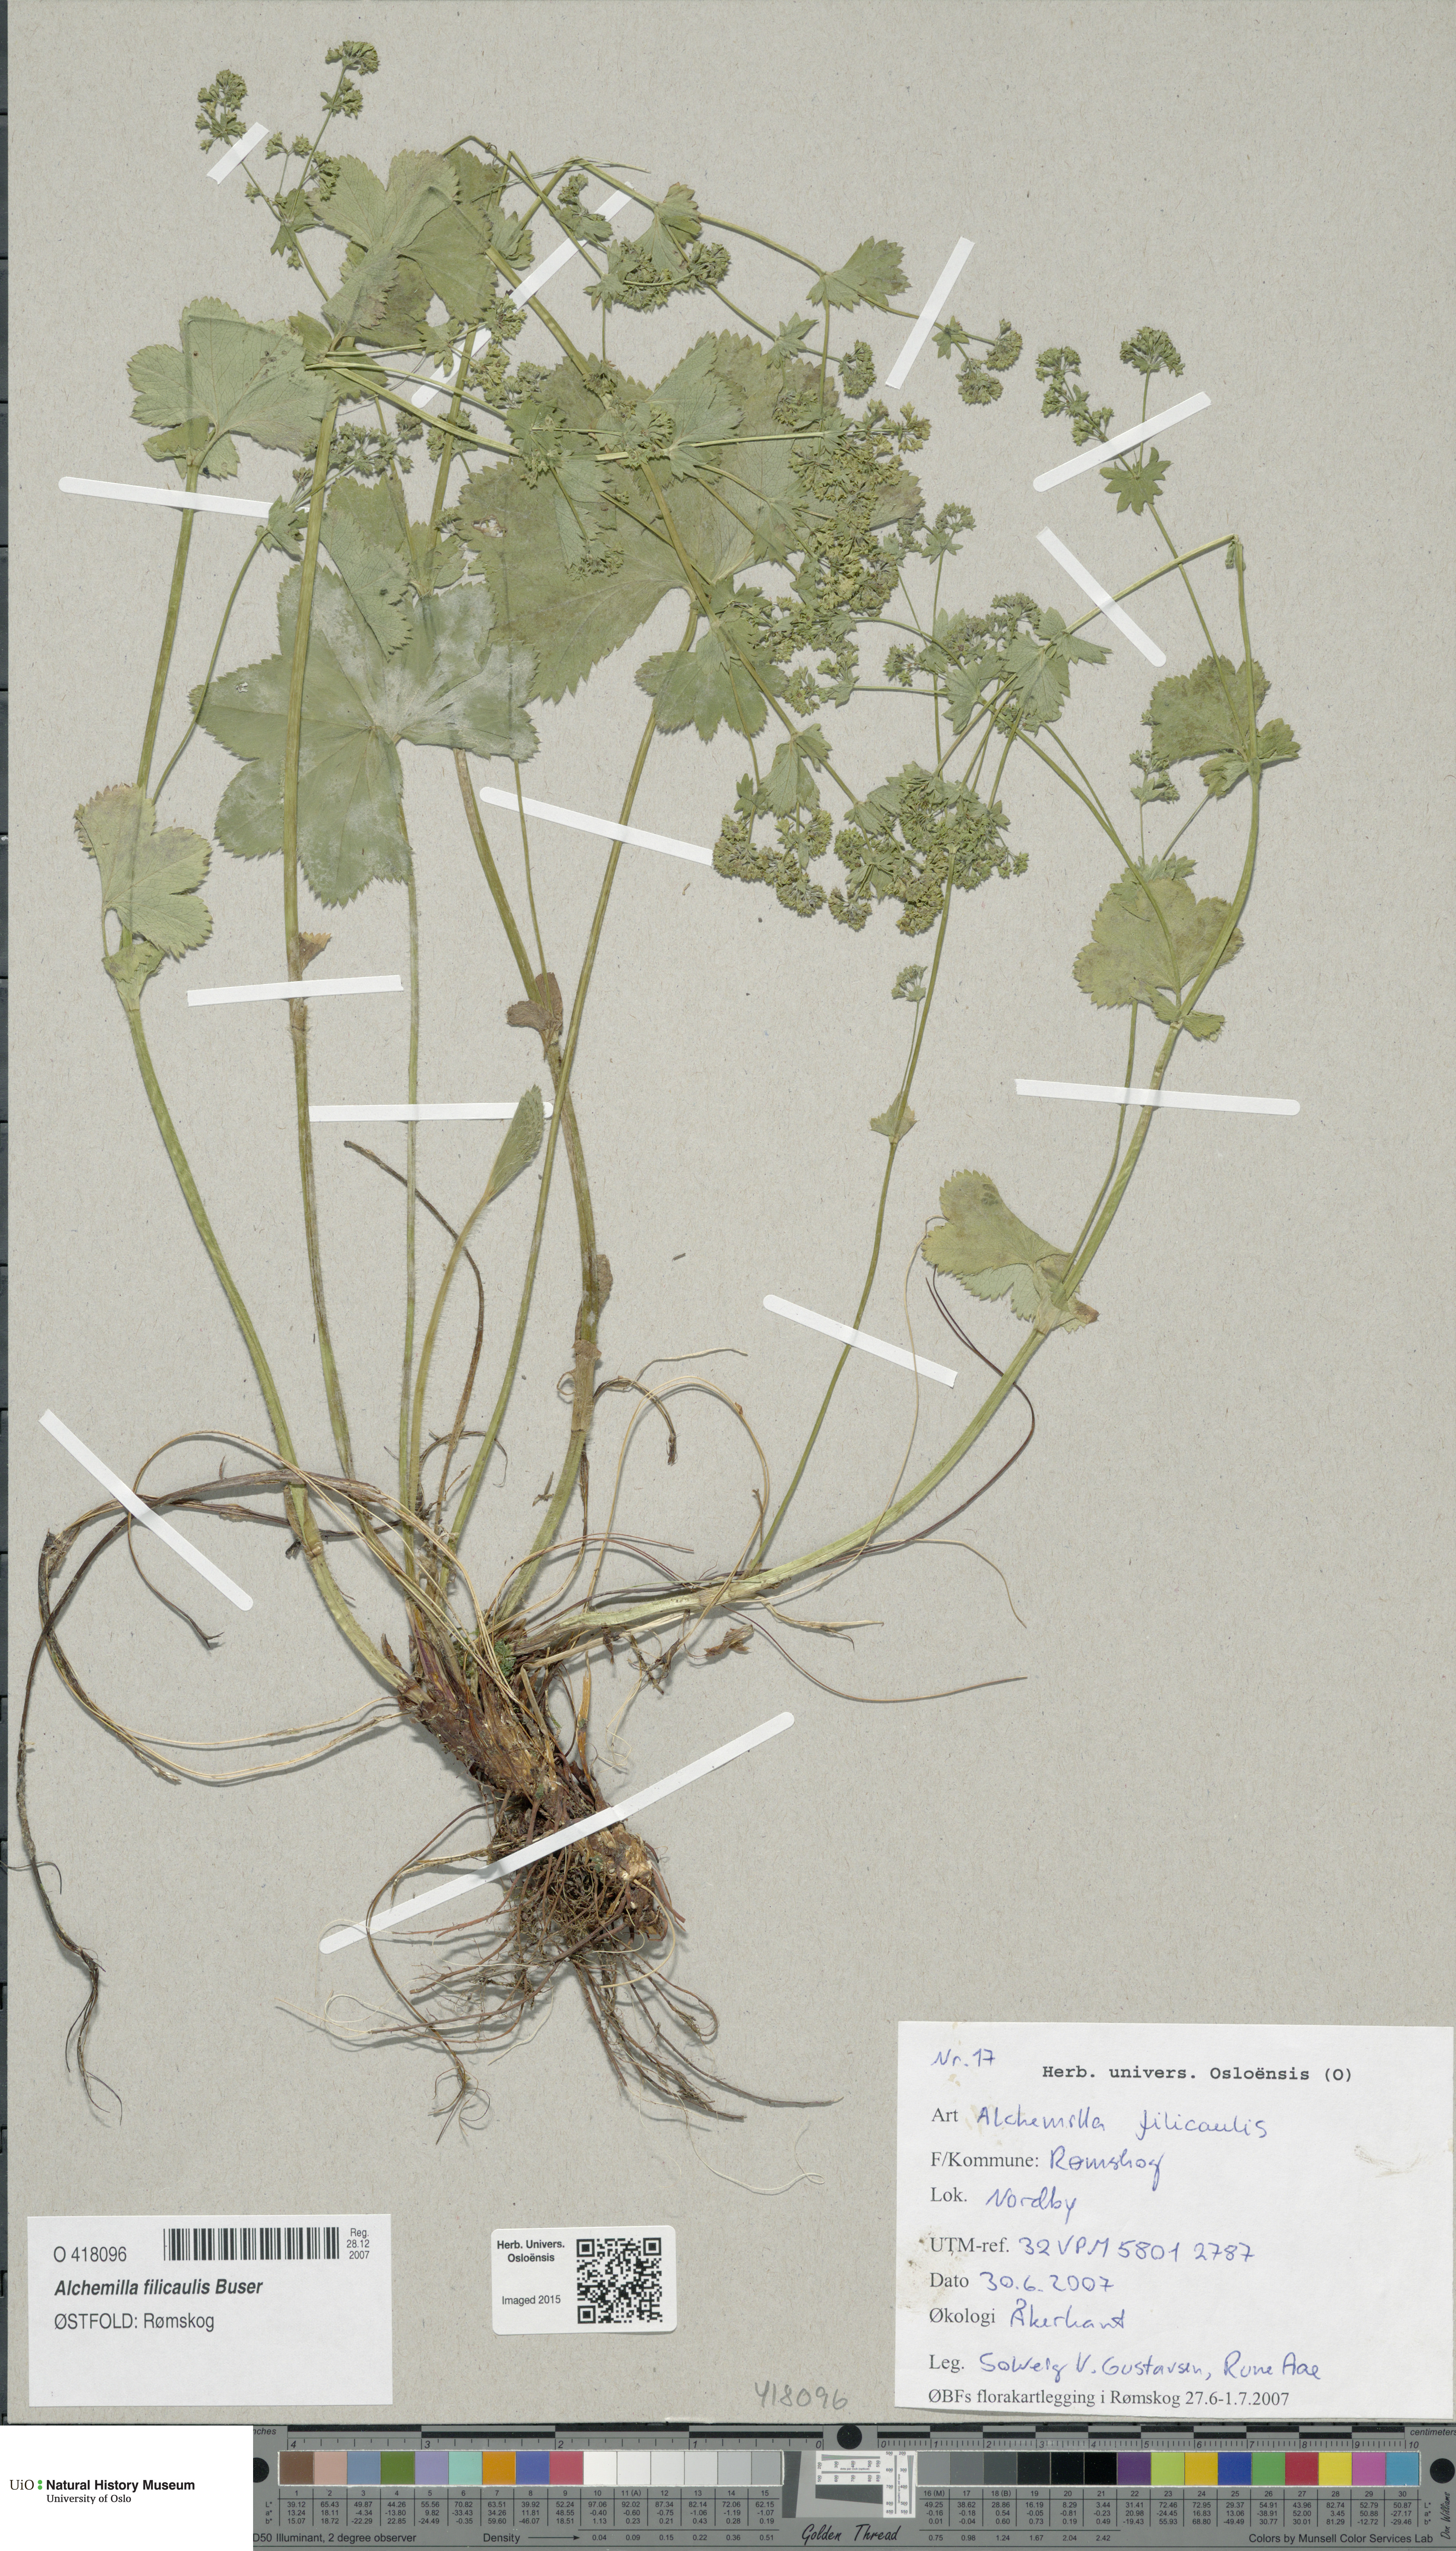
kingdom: Plantae
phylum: Tracheophyta
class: Magnoliopsida
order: Rosales
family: Rosaceae
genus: Alchemilla
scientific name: Alchemilla filicaulis
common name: Hairy lady's-mantle
